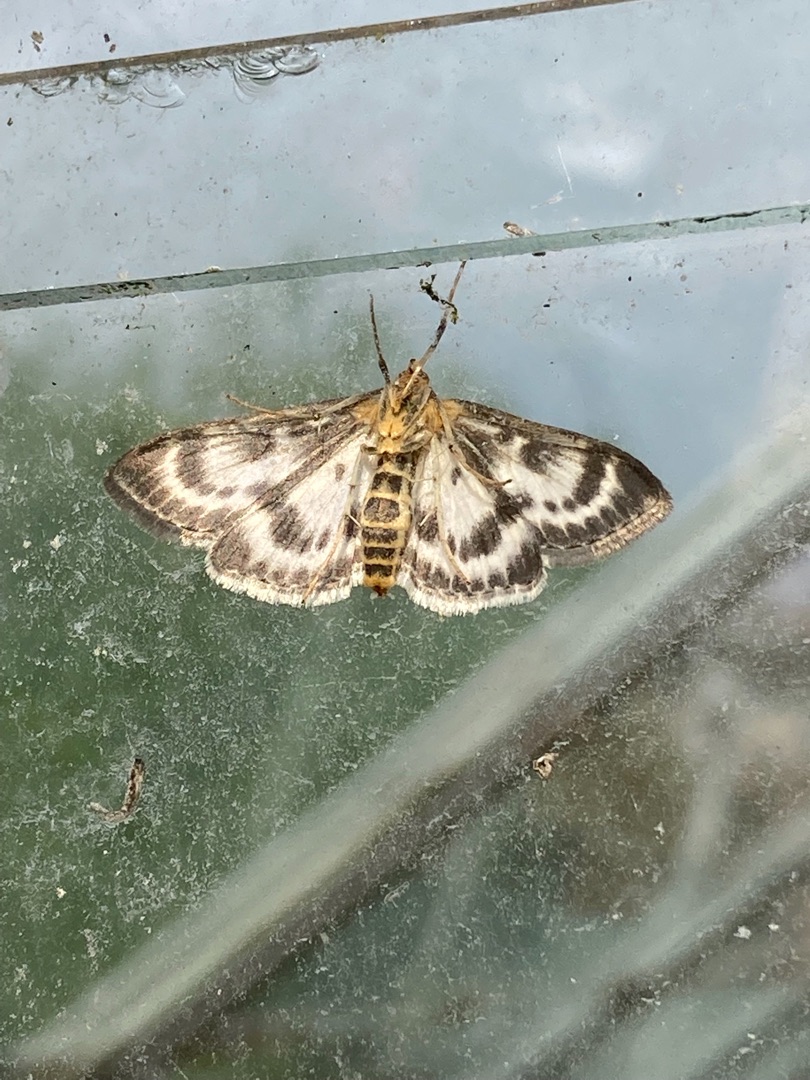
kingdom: Animalia
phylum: Arthropoda
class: Insecta
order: Lepidoptera
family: Crambidae
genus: Anania
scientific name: Anania hortulata
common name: Nældehalvmøl
